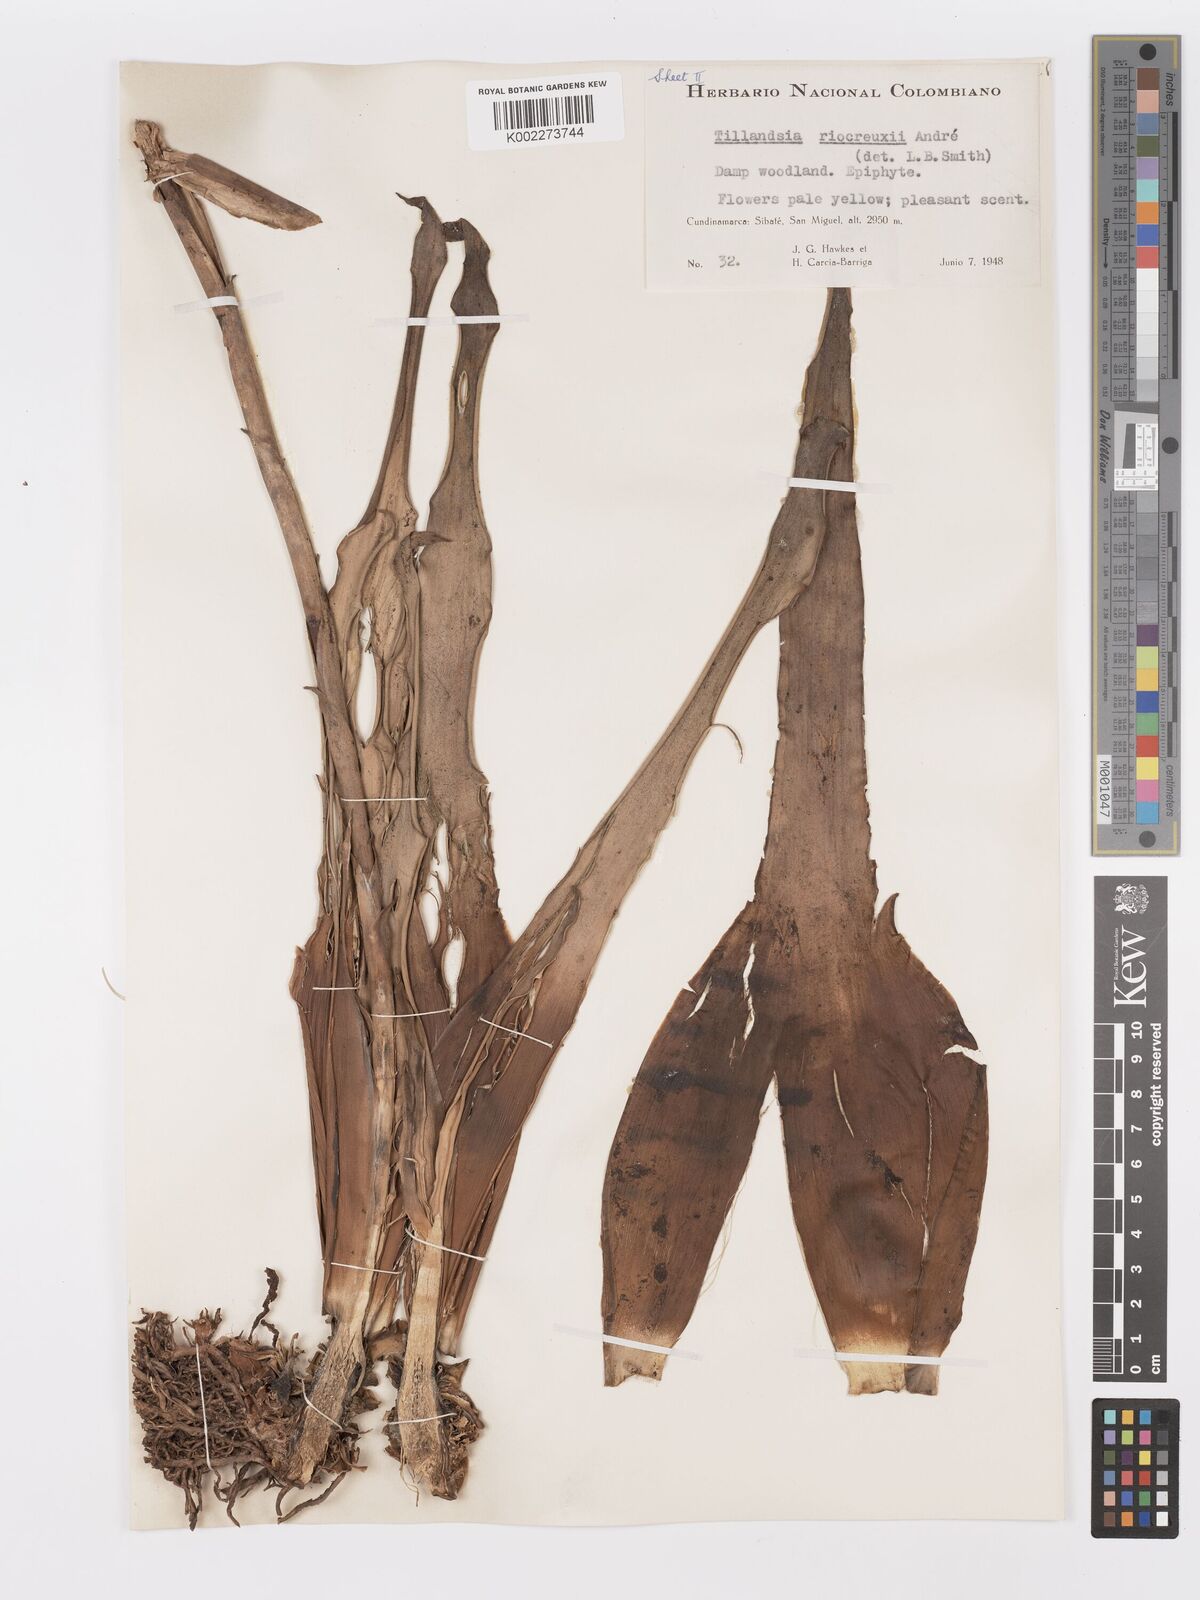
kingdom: Plantae
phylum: Tracheophyta
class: Liliopsida
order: Poales
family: Bromeliaceae
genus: Racinaea
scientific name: Racinaea riocreuxii
